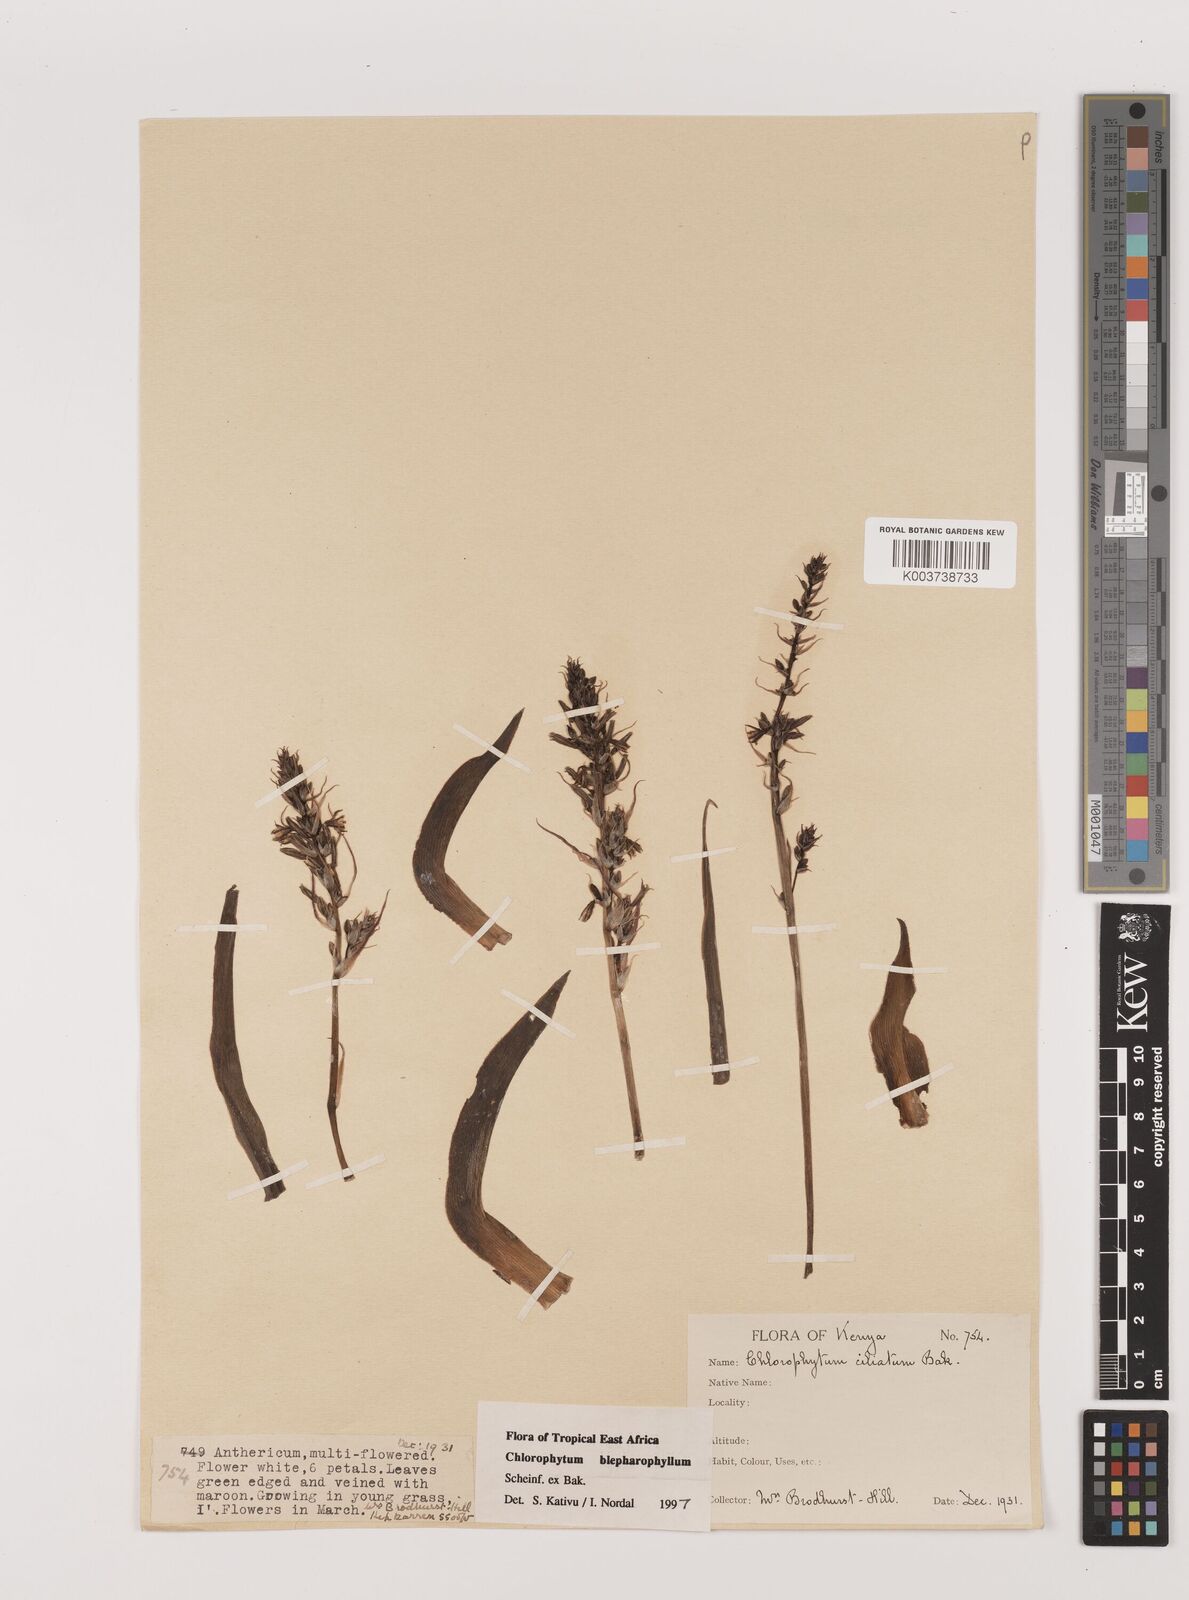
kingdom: Plantae
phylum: Tracheophyta
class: Liliopsida
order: Asparagales
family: Asparagaceae
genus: Chlorophytum
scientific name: Chlorophytum blepharophyllum
